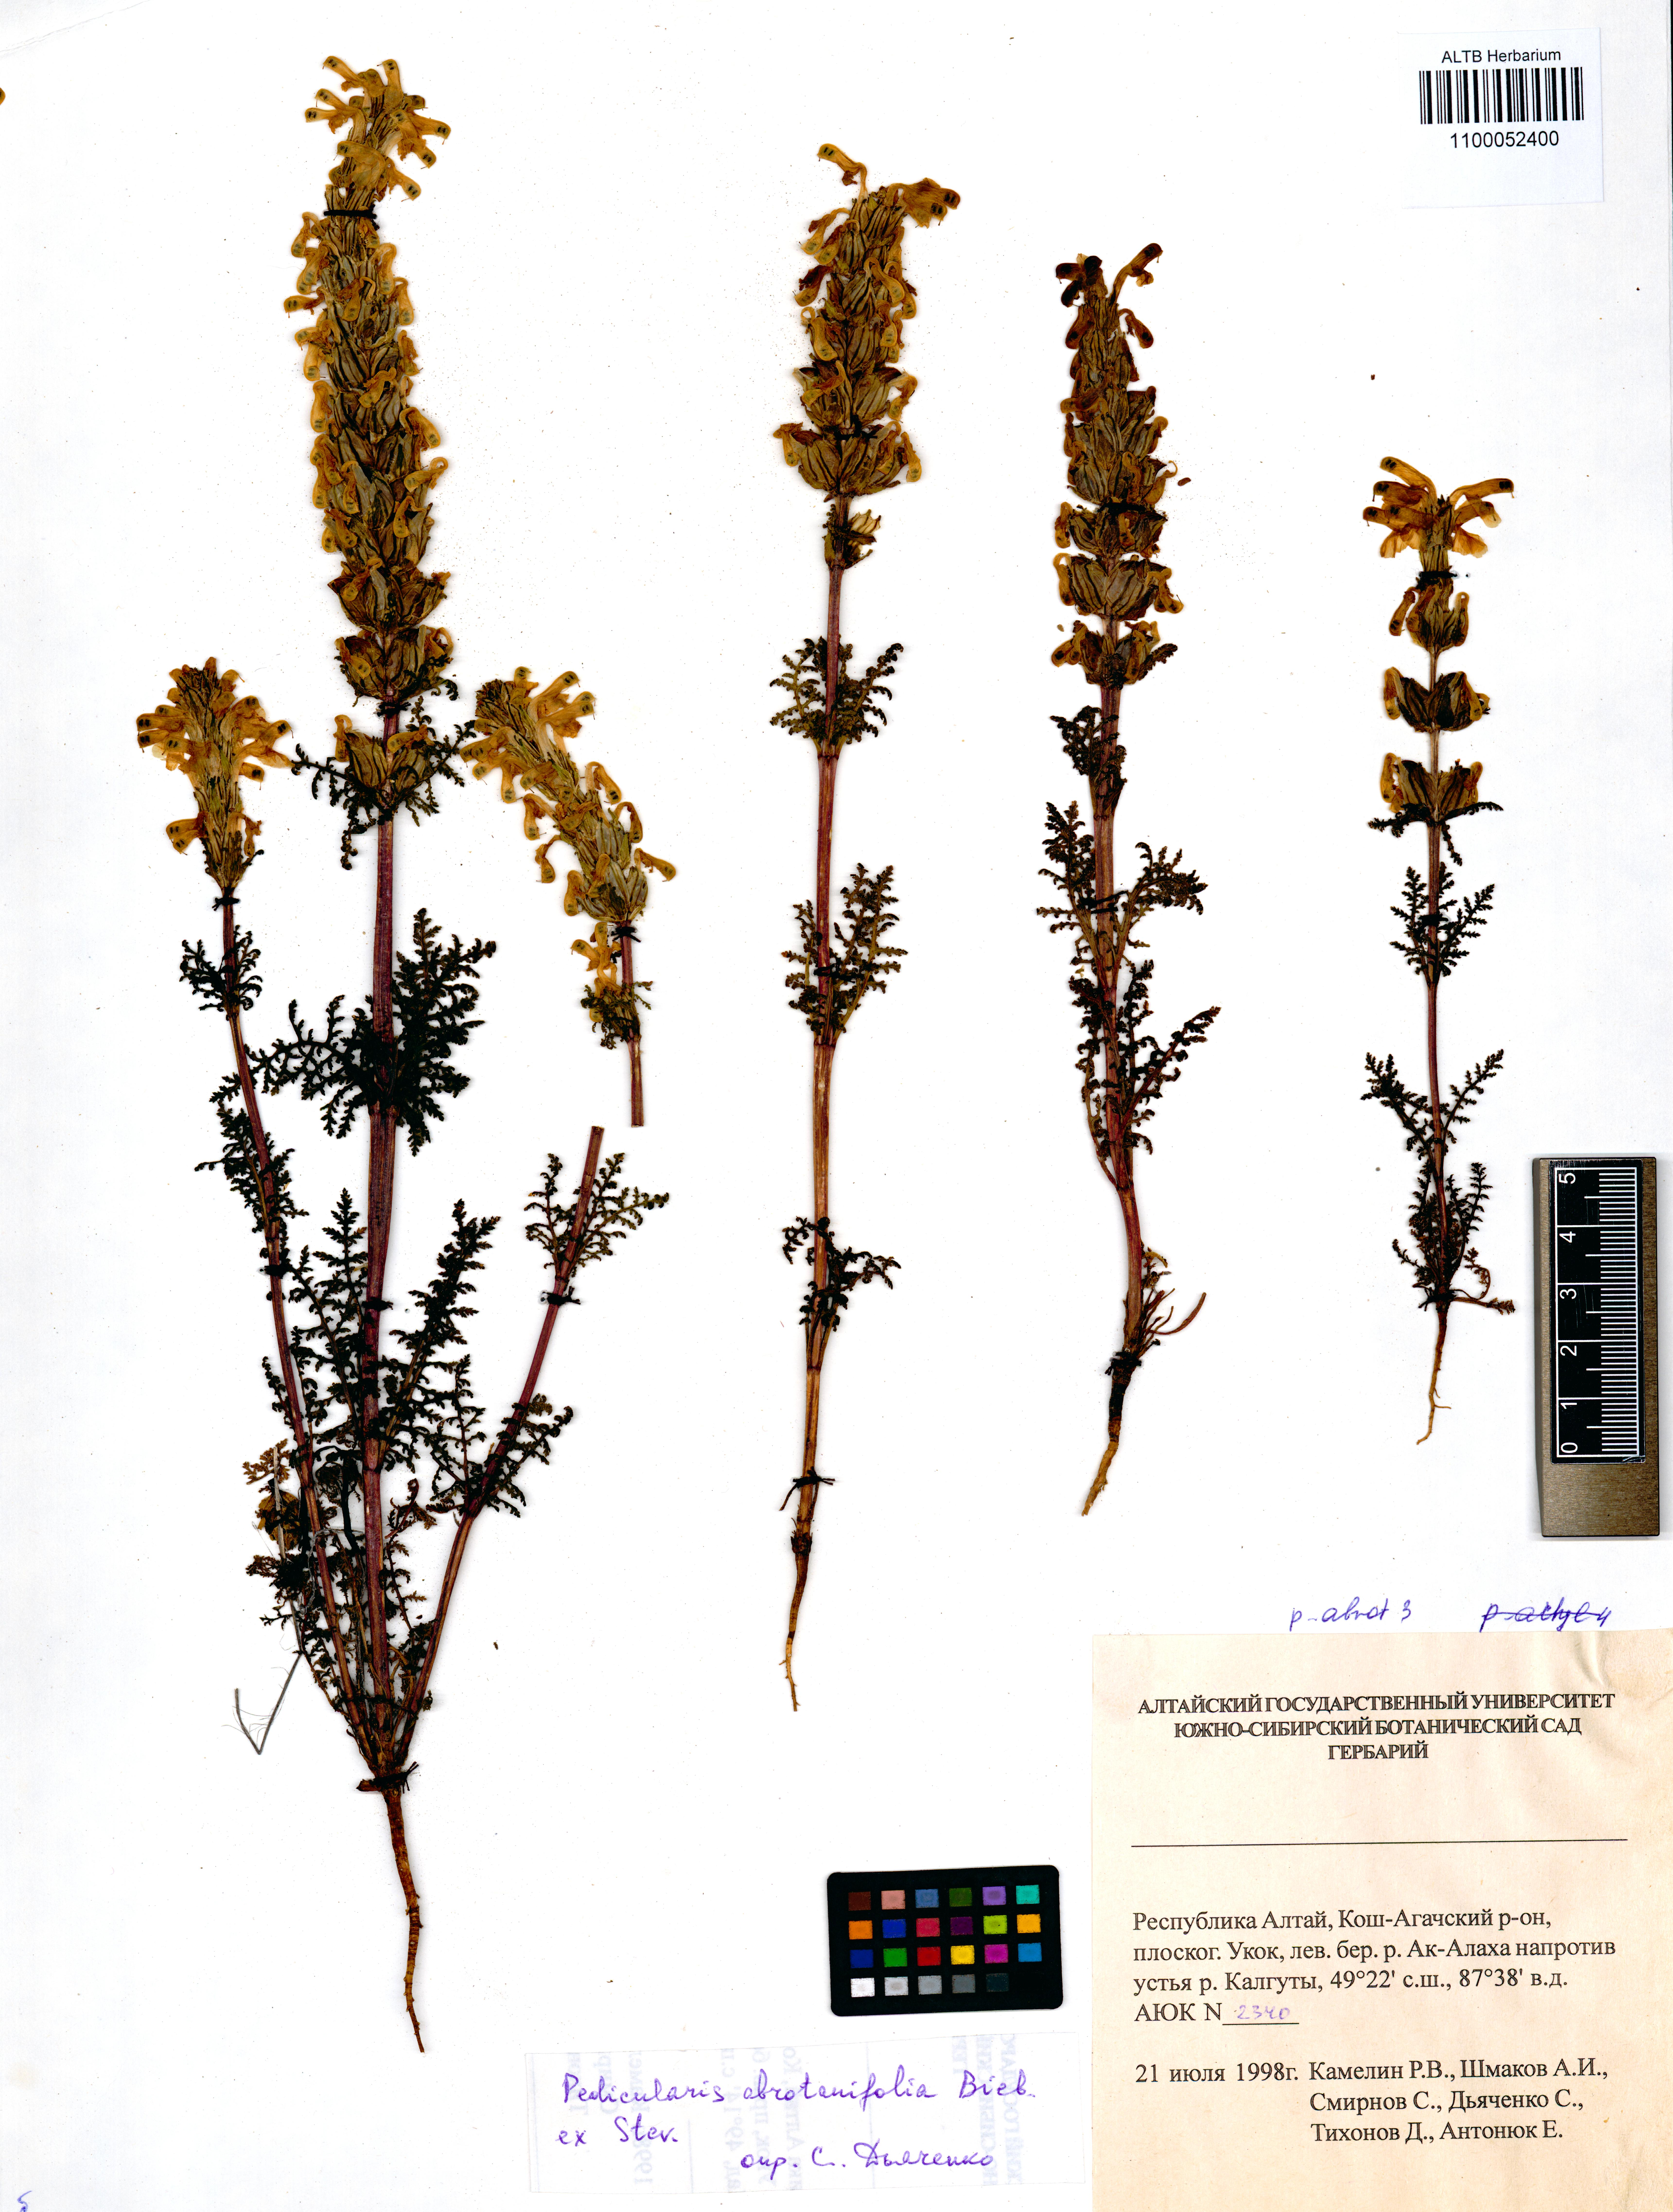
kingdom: Plantae
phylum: Tracheophyta
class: Magnoliopsida
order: Lamiales
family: Orobanchaceae
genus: Pedicularis
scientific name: Pedicularis abrotanifolia
